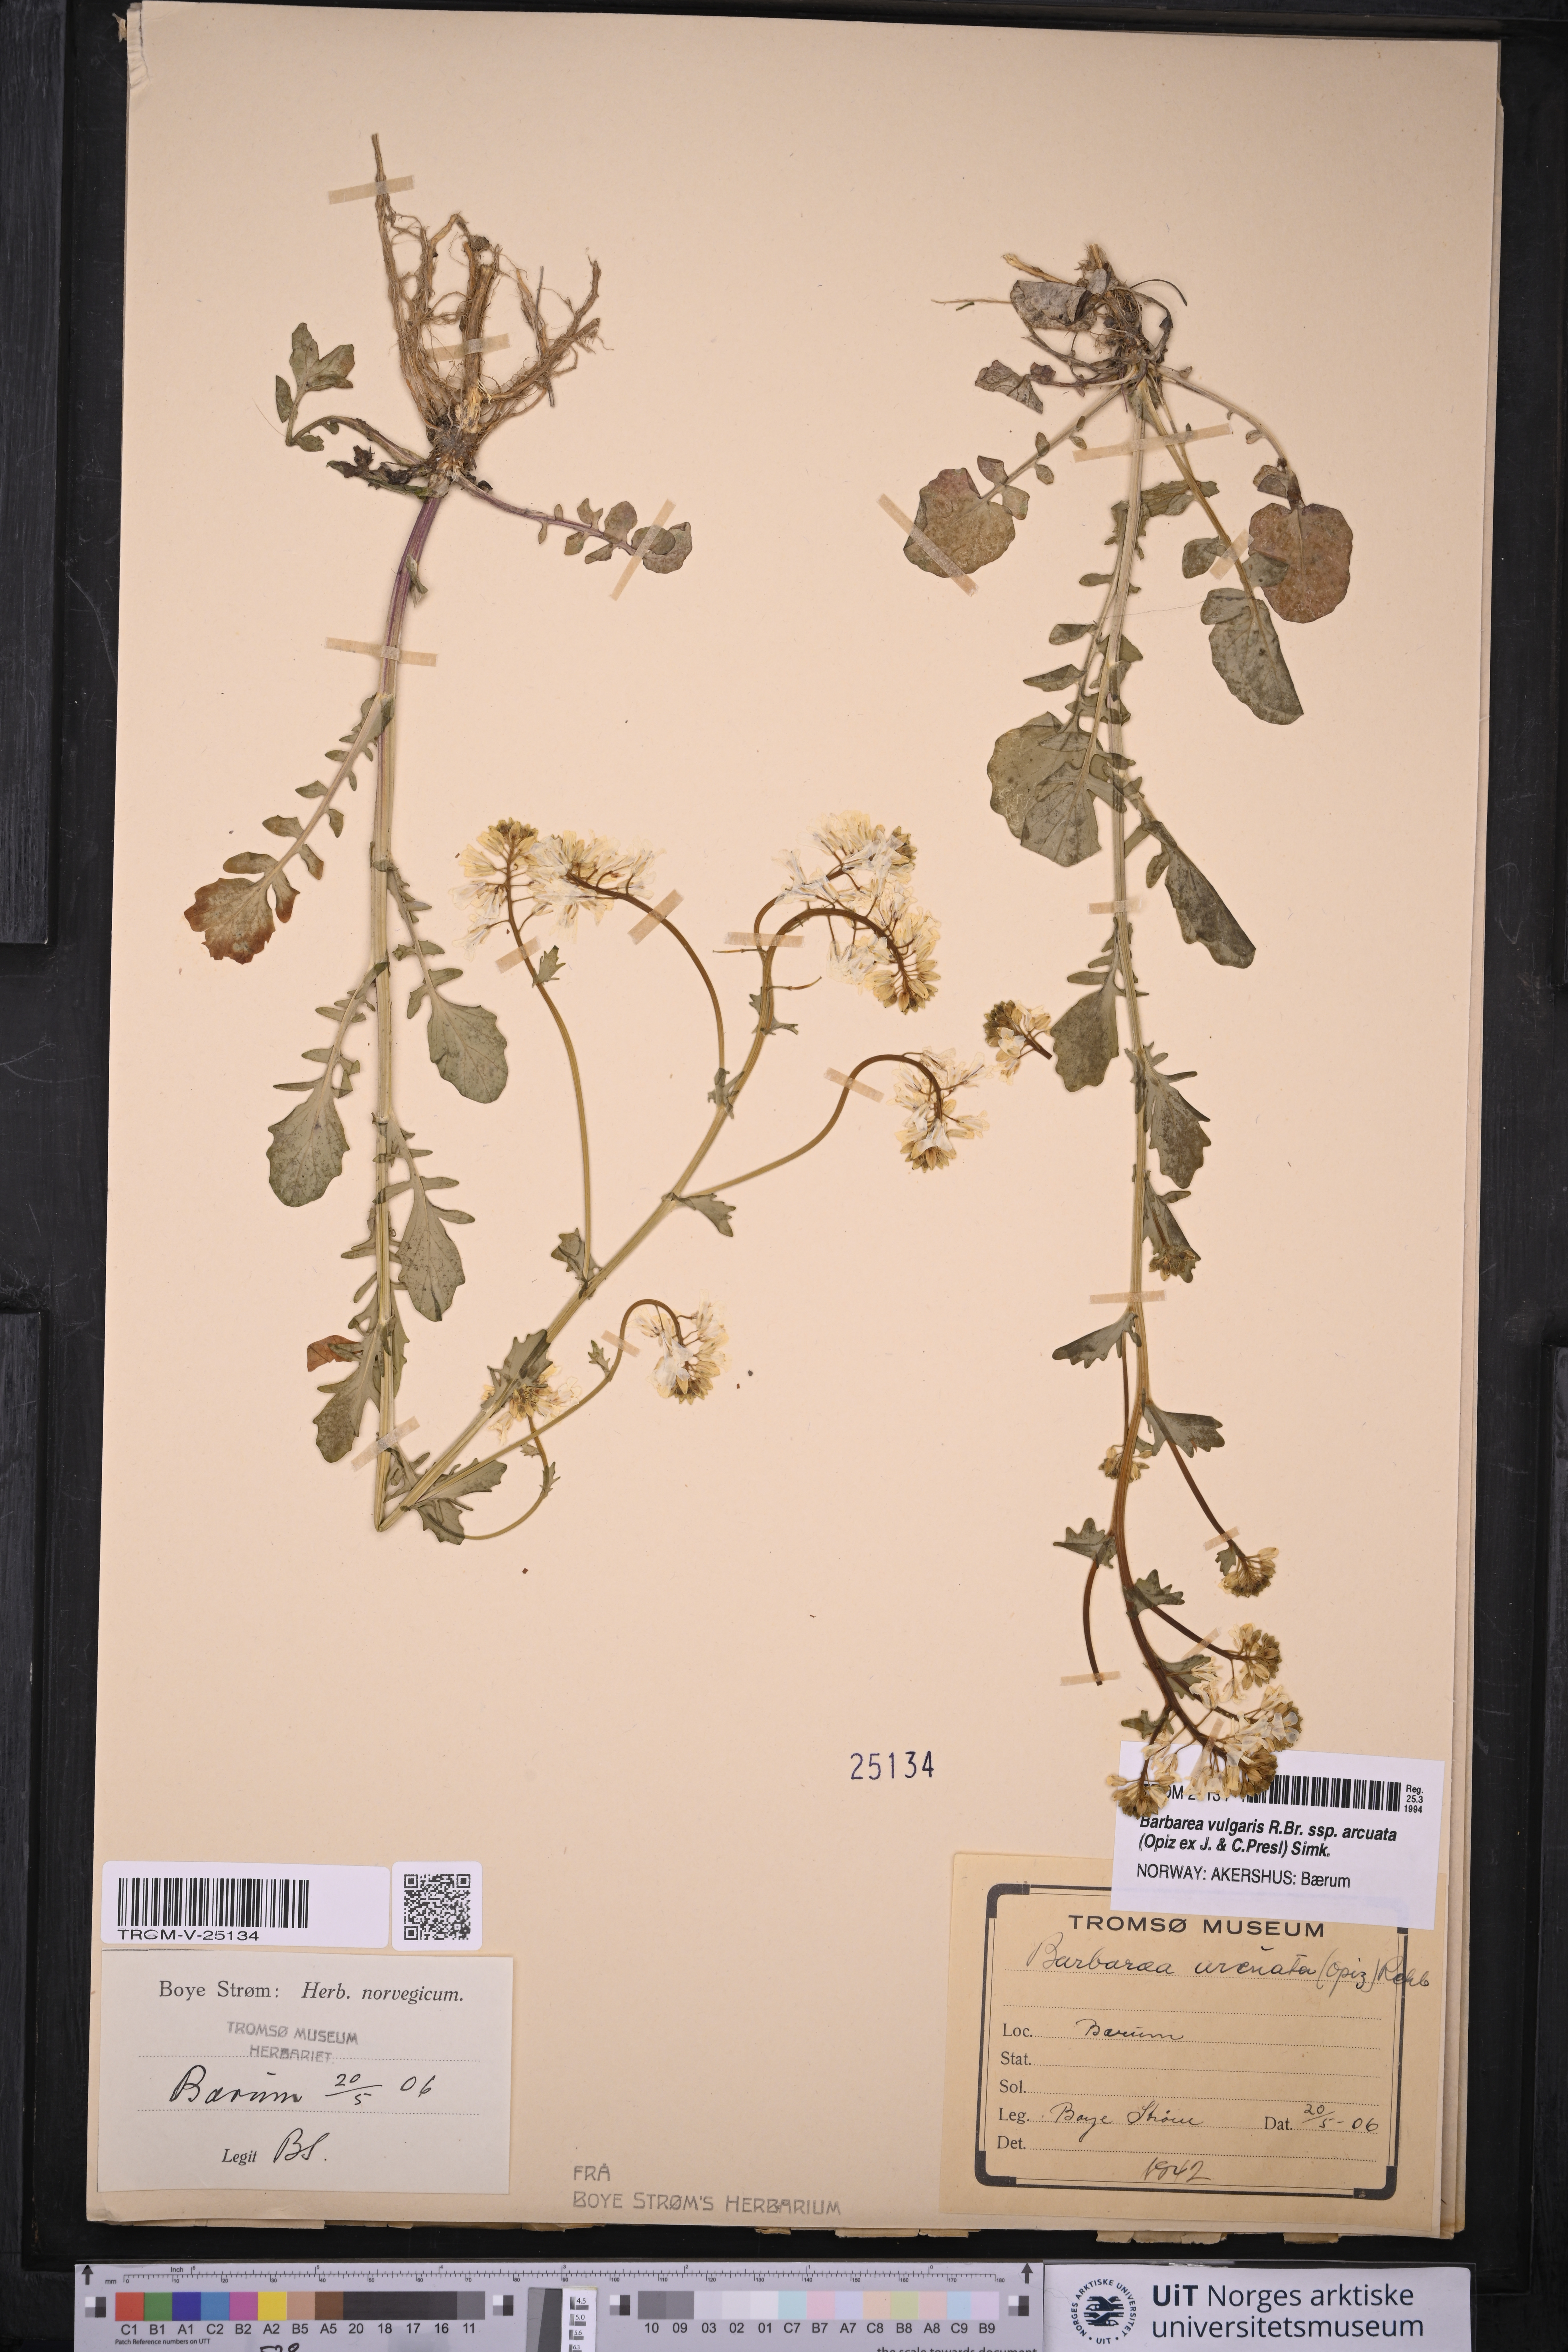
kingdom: Plantae
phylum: Tracheophyta
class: Magnoliopsida
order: Brassicales
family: Brassicaceae
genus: Barbarea
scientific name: Barbarea vulgaris
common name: Cressy-greens
